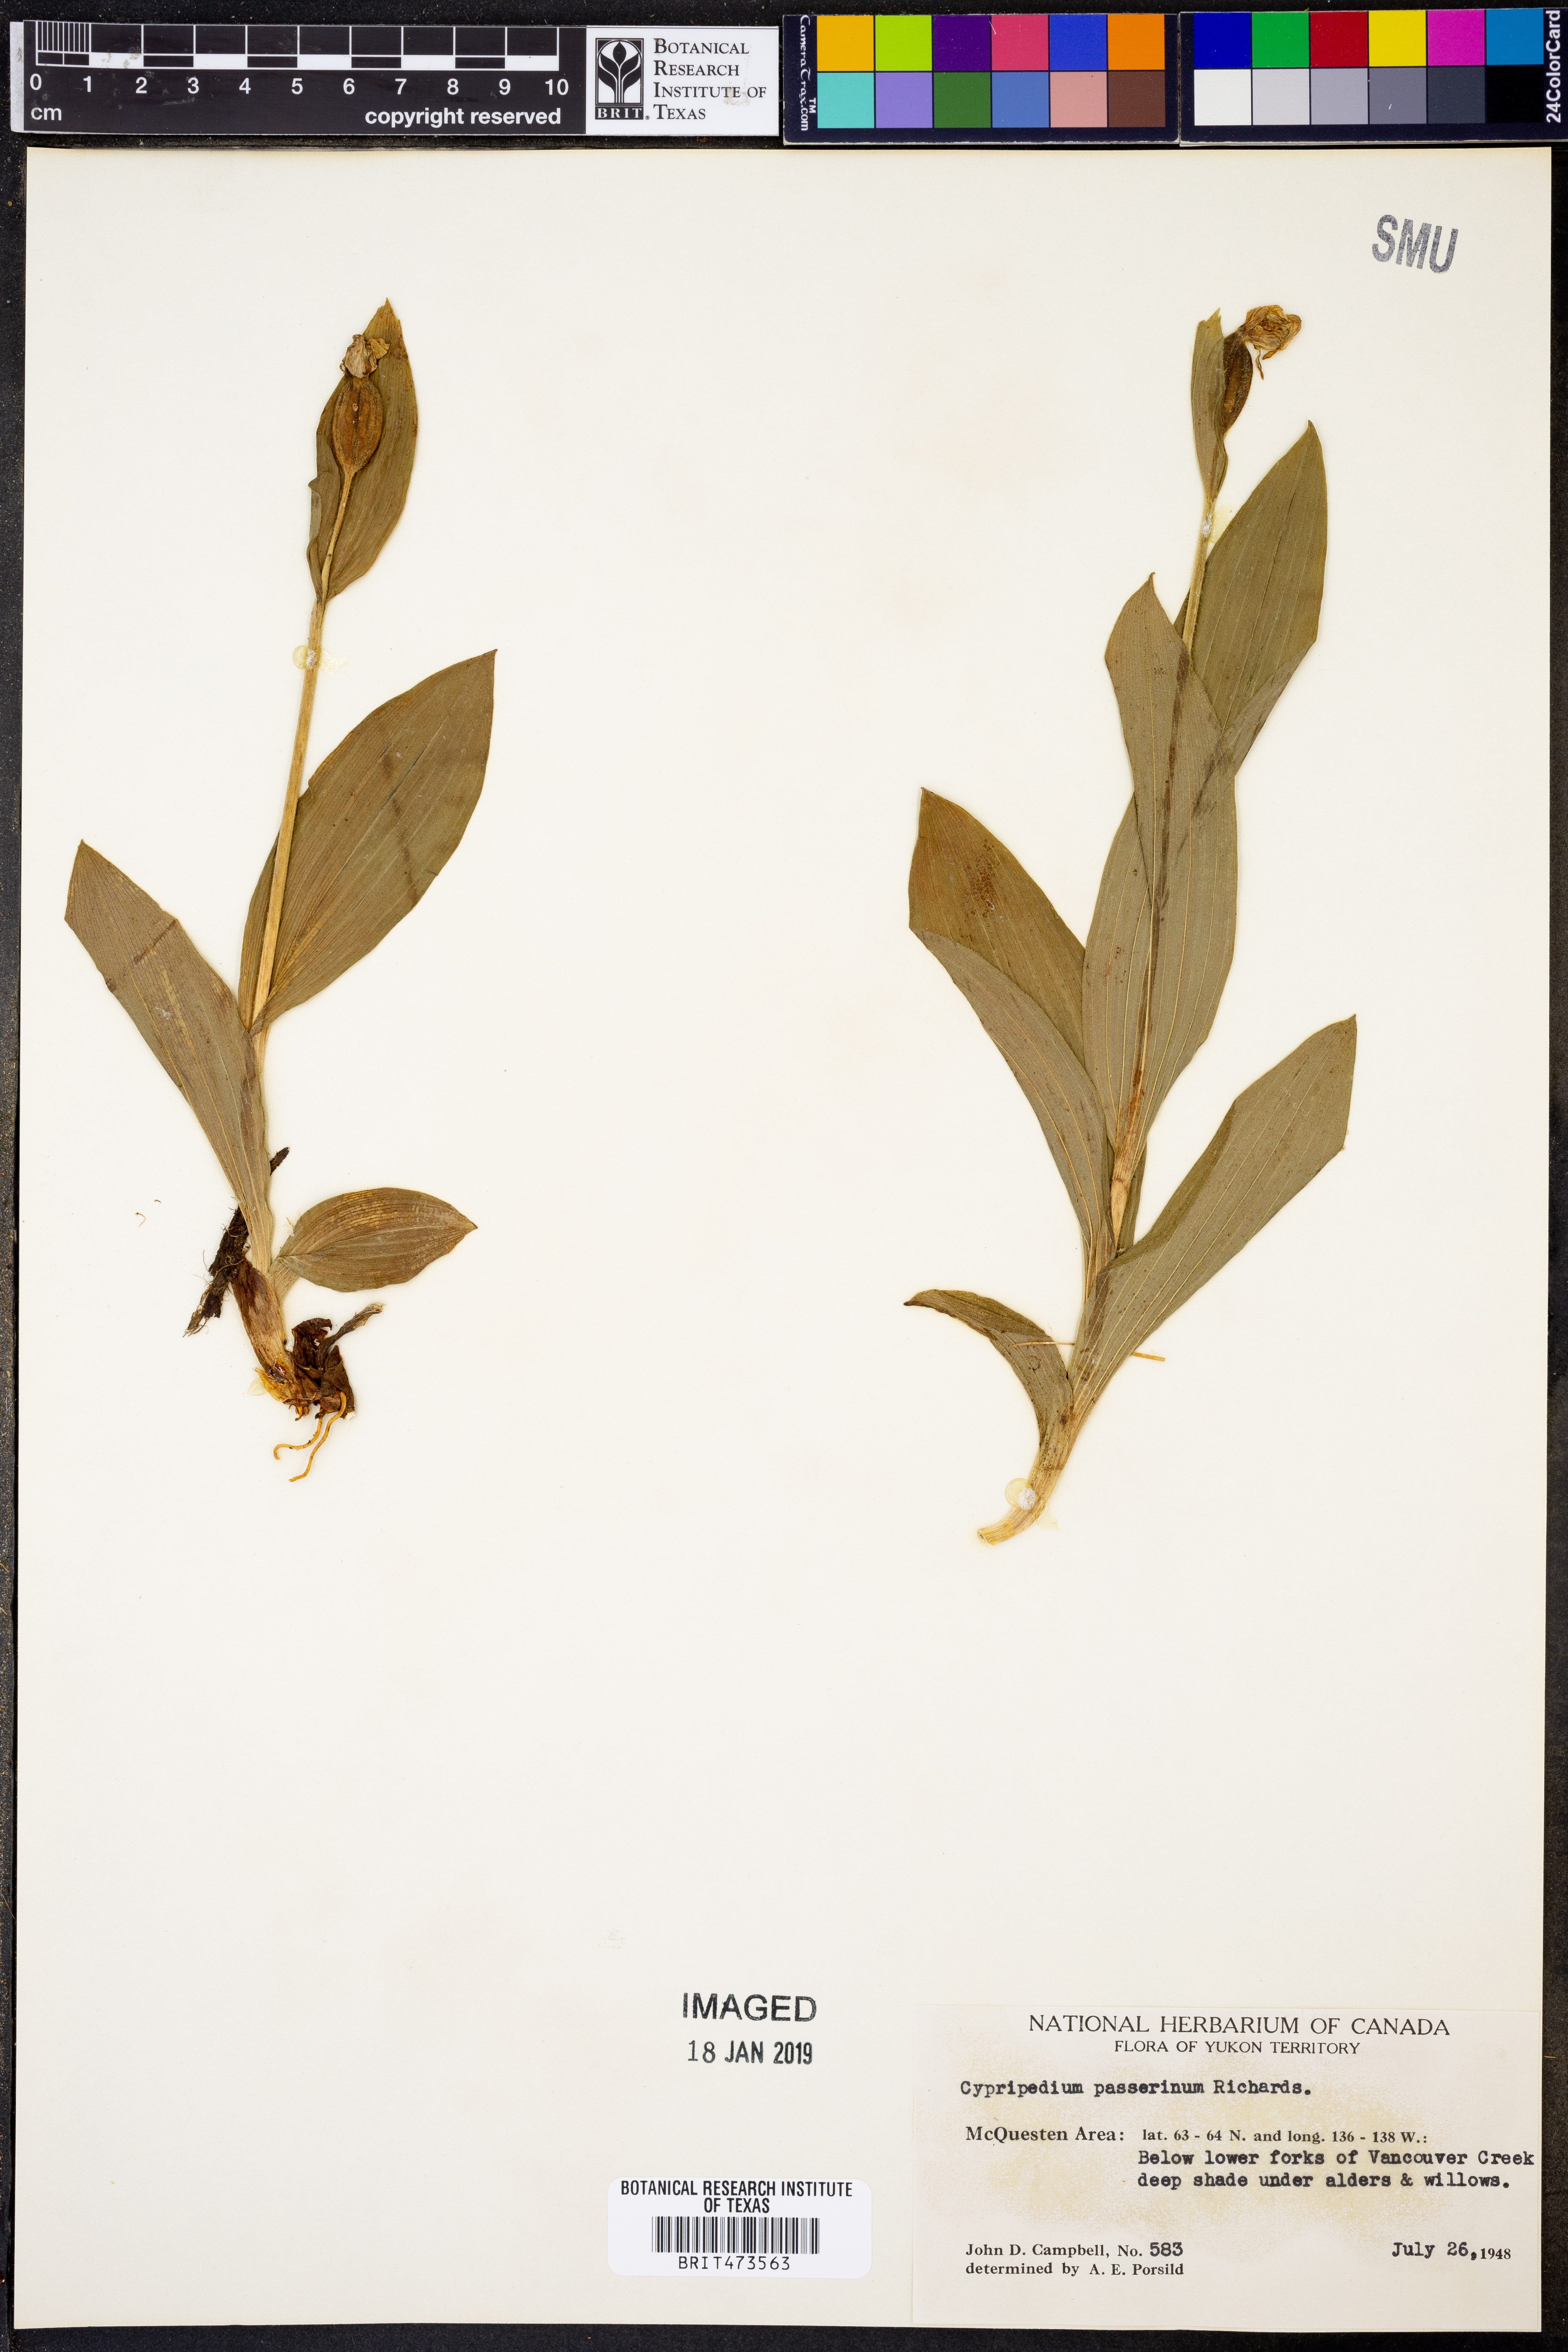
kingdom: Plantae
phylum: Tracheophyta
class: Liliopsida
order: Asparagales
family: Orchidaceae
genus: Cypripedium
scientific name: Cypripedium passerinum
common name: Sparrow's-egg lady's-slipper
